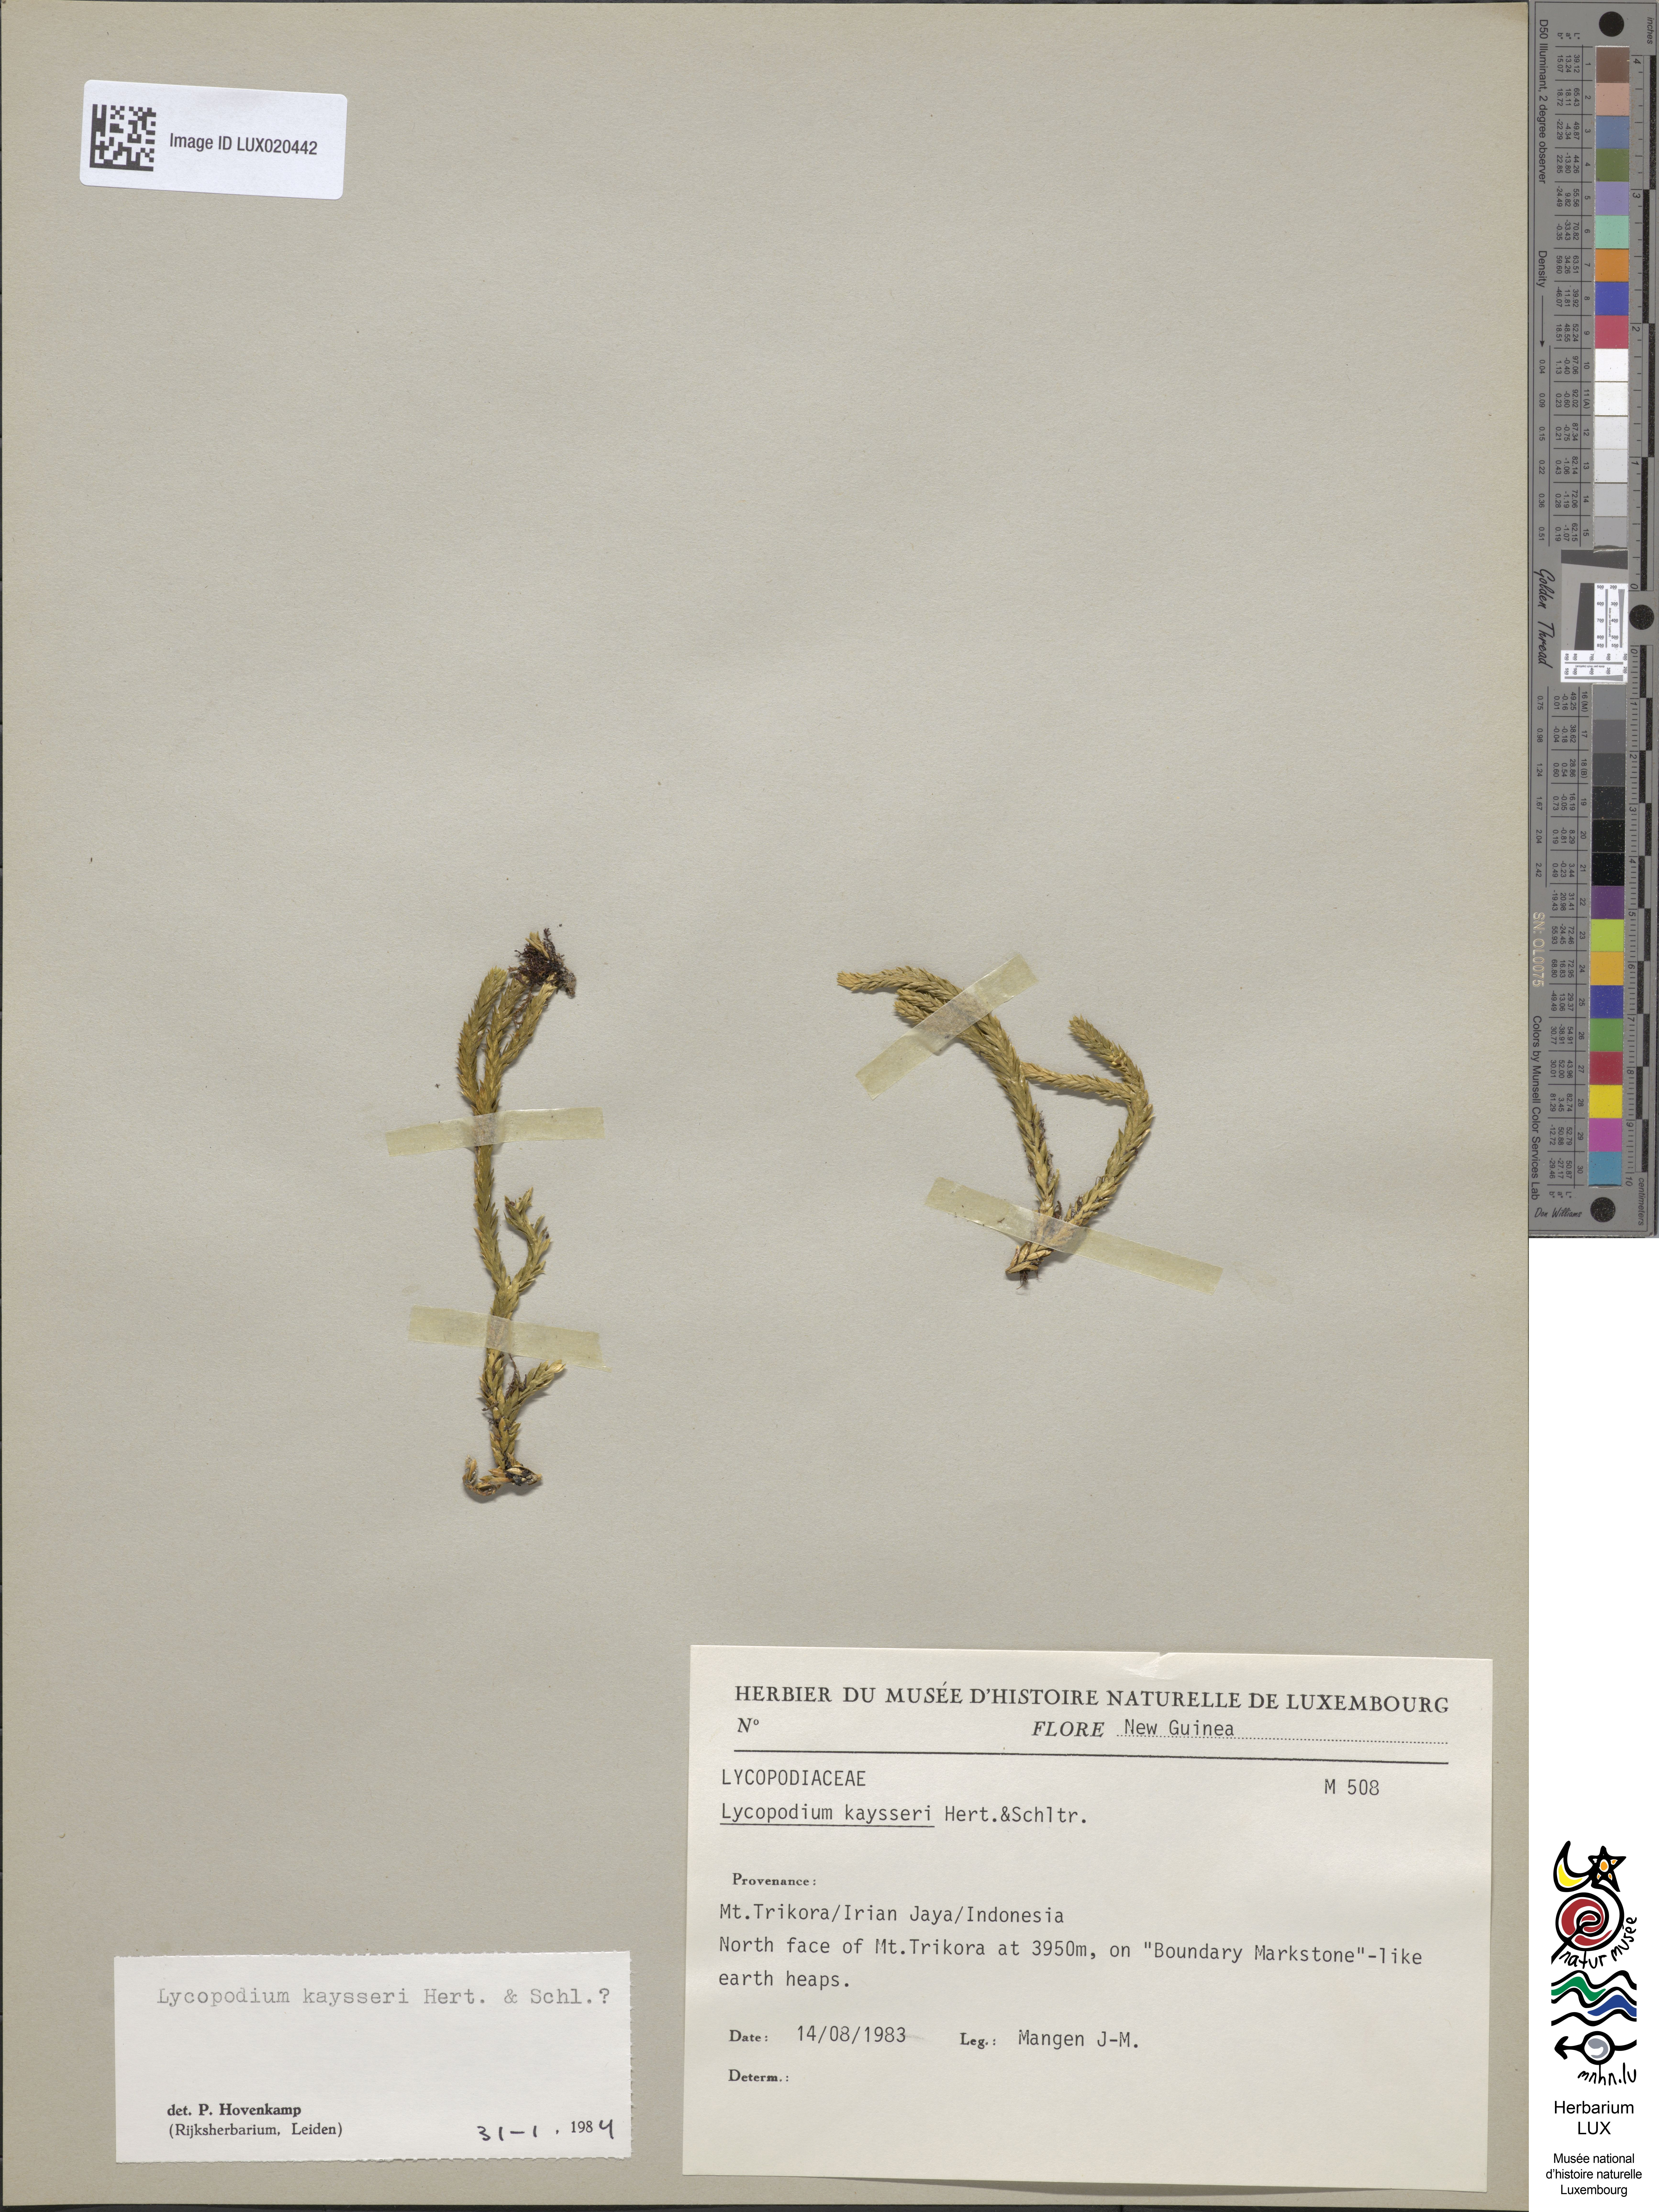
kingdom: Plantae
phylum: Tracheophyta
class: Lycopodiopsida
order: Lycopodiales
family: Lycopodiaceae
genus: Lycopodium
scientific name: Lycopodium
